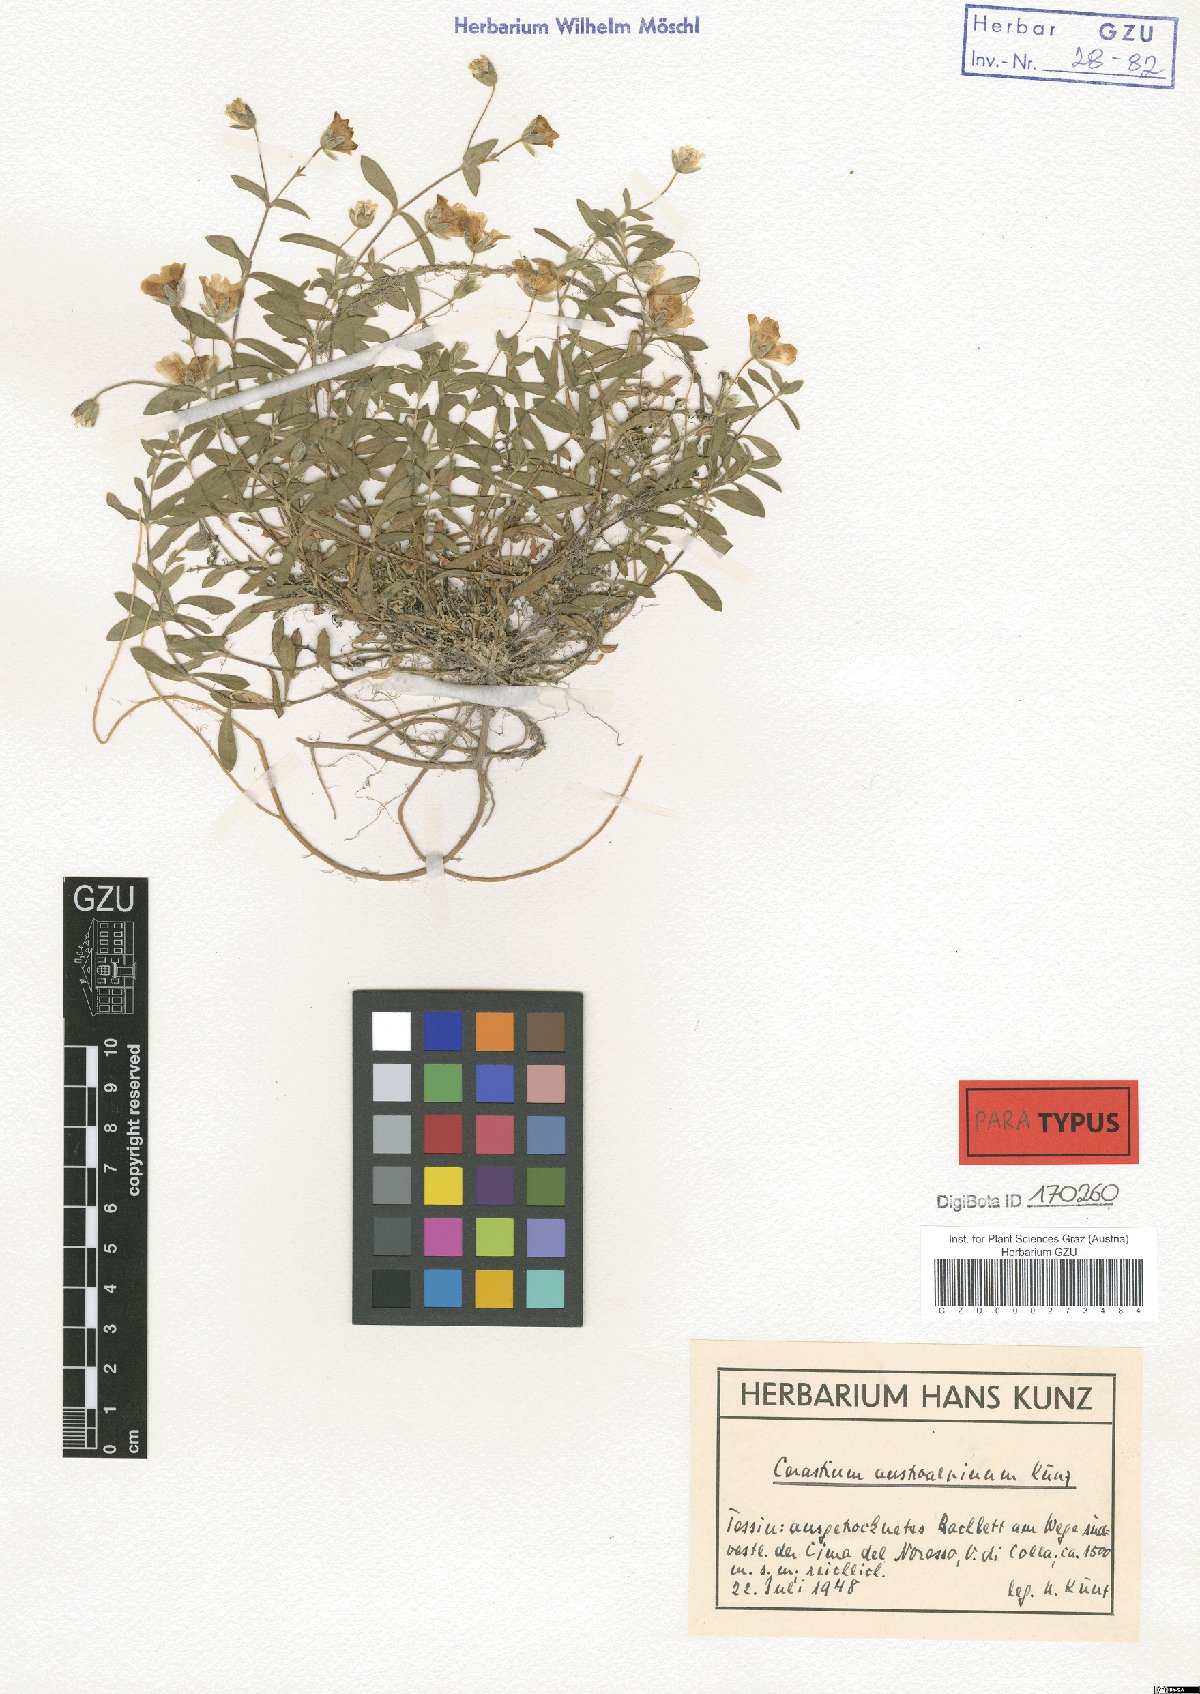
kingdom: Plantae
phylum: Tracheophyta
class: Magnoliopsida
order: Caryophyllales
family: Caryophyllaceae
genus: Cerastium
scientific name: Cerastium carinthiacum
